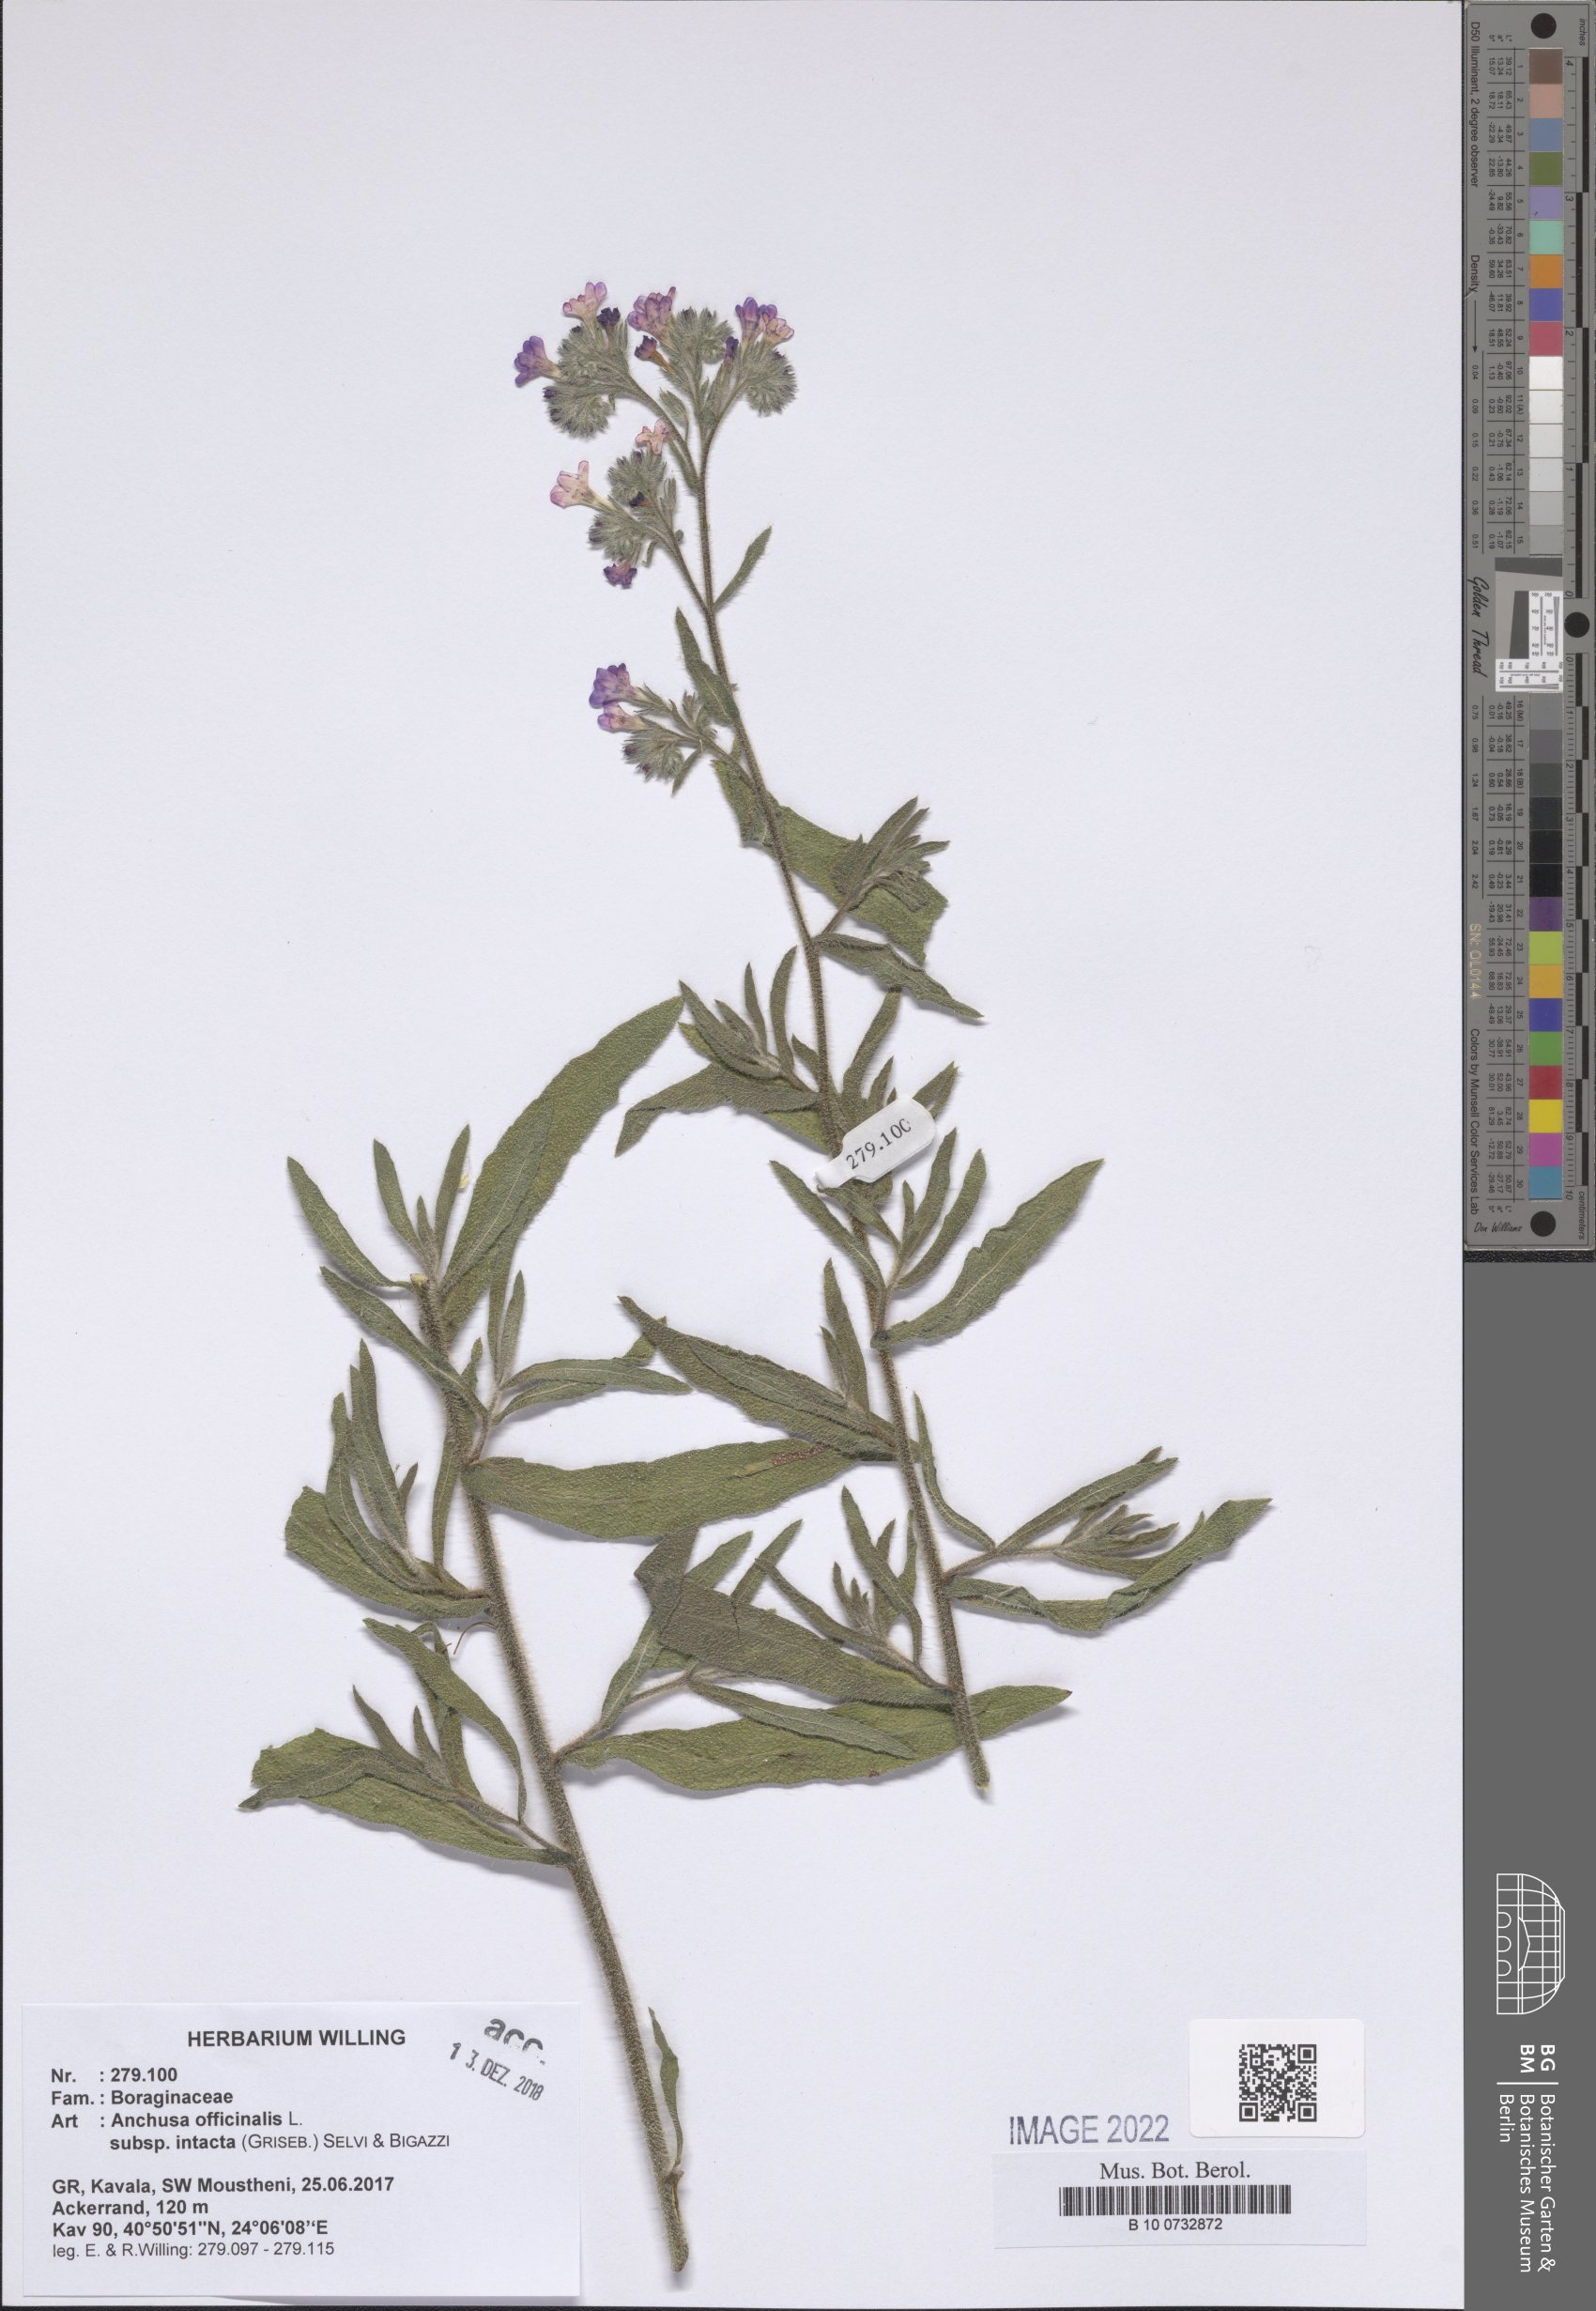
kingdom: Plantae
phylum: Tracheophyta
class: Magnoliopsida
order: Boraginales
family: Boraginaceae
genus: Anchusa
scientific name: Anchusa officinalis
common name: Alkanet
